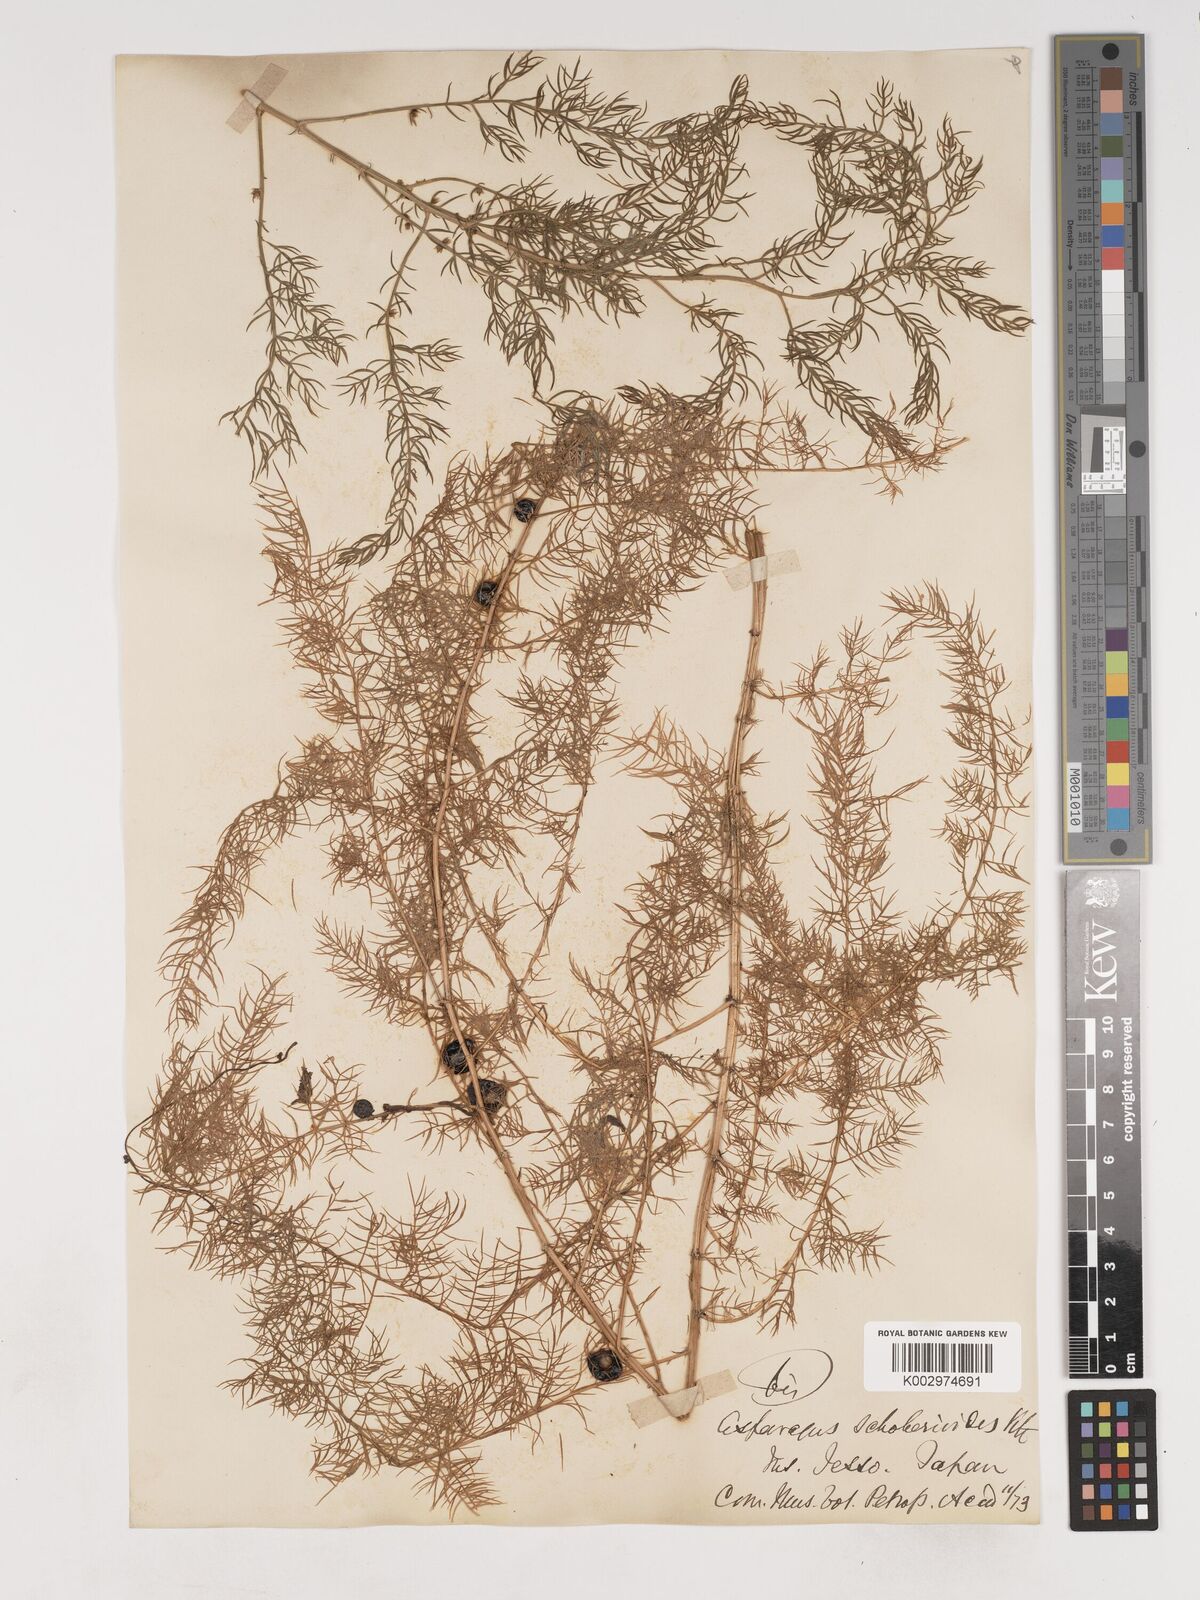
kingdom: Plantae
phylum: Tracheophyta
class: Liliopsida
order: Asparagales
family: Asparagaceae
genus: Asparagus
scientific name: Asparagus schoberioides
